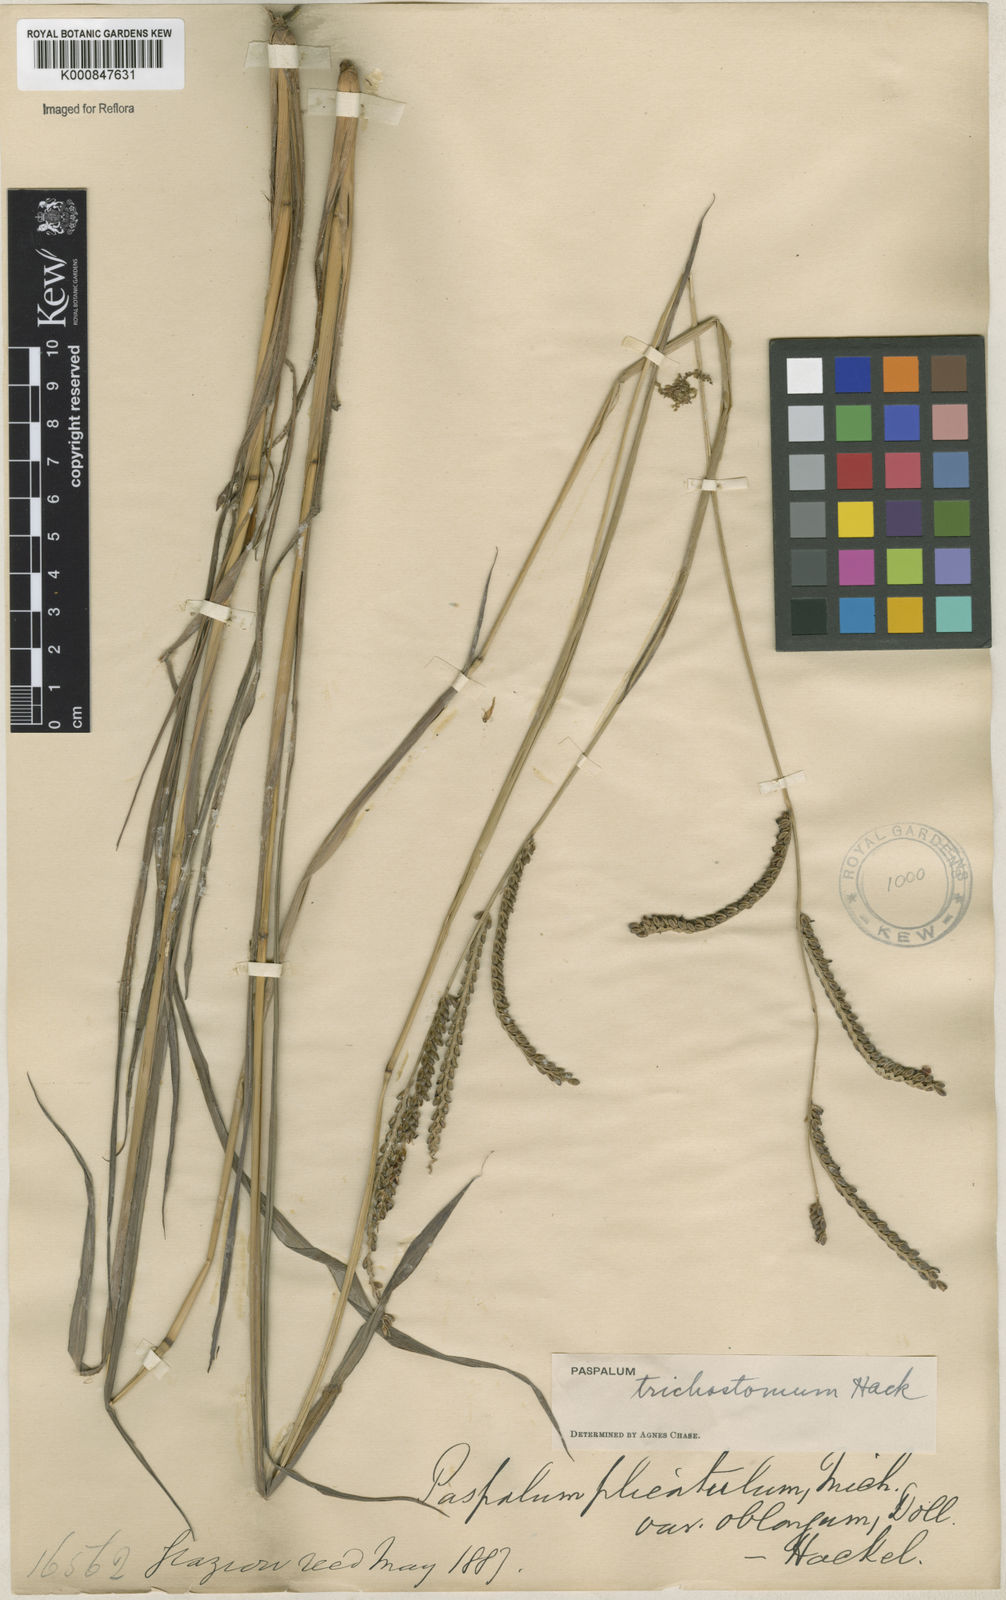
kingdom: Plantae
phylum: Tracheophyta
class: Liliopsida
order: Poales
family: Poaceae
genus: Paspalum
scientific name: Paspalum
